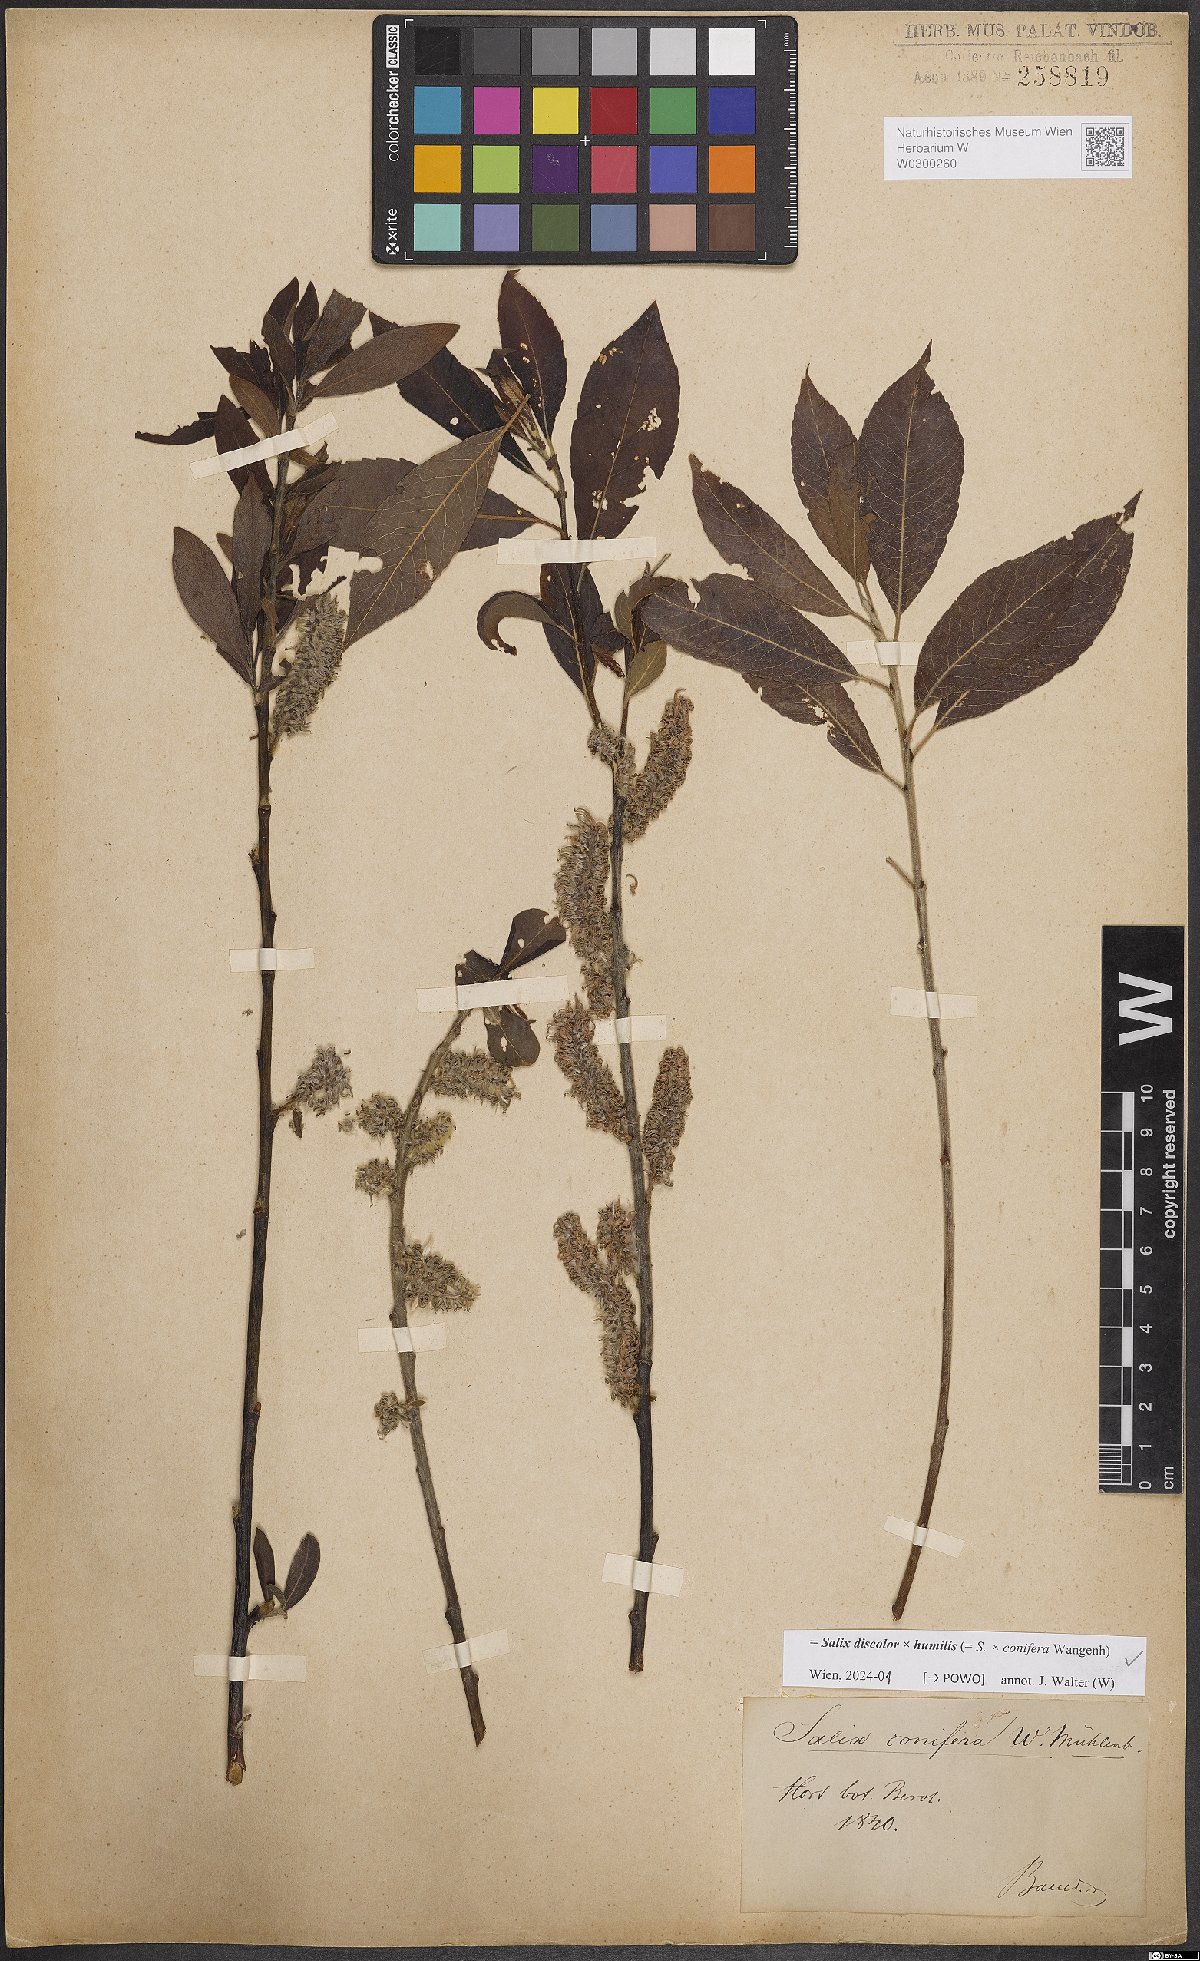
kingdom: Plantae
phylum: Tracheophyta
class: Magnoliopsida
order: Malpighiales
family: Salicaceae
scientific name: Salicaceae
